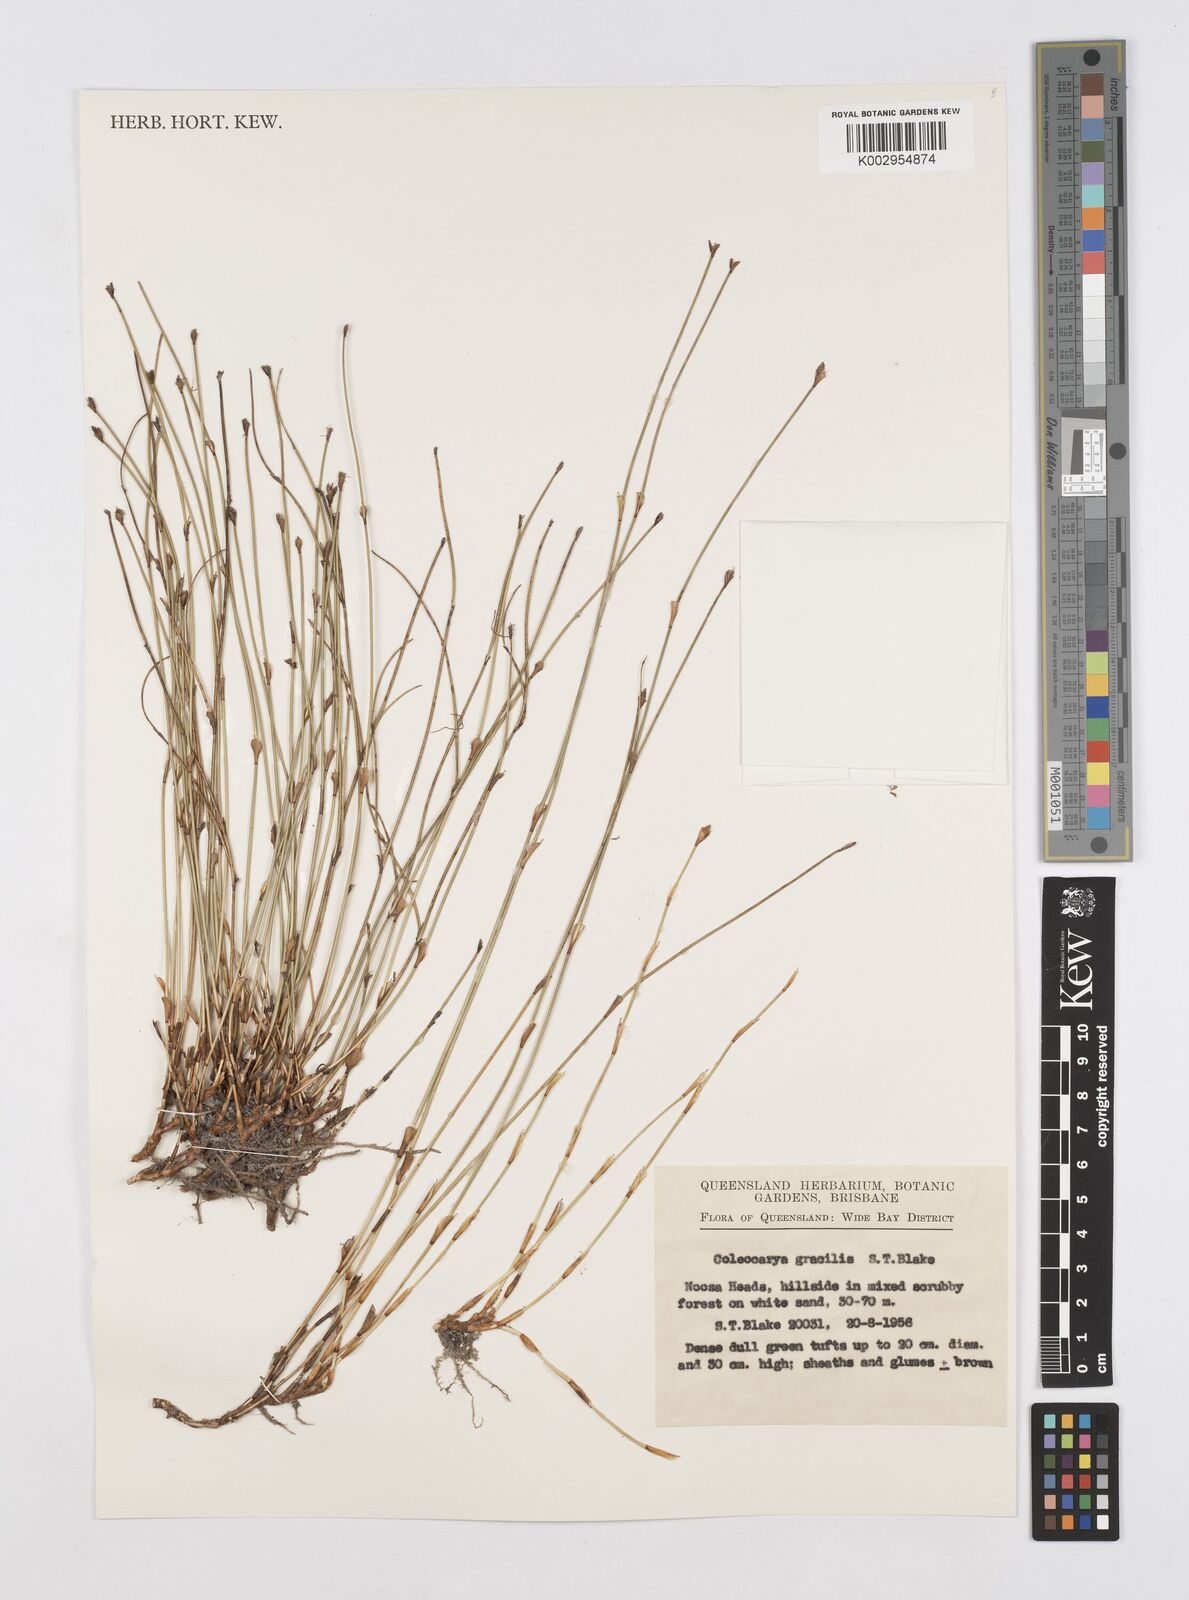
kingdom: Plantae
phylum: Tracheophyta
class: Liliopsida
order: Poales
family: Restionaceae
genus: Coleocarya
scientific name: Coleocarya gracilis
